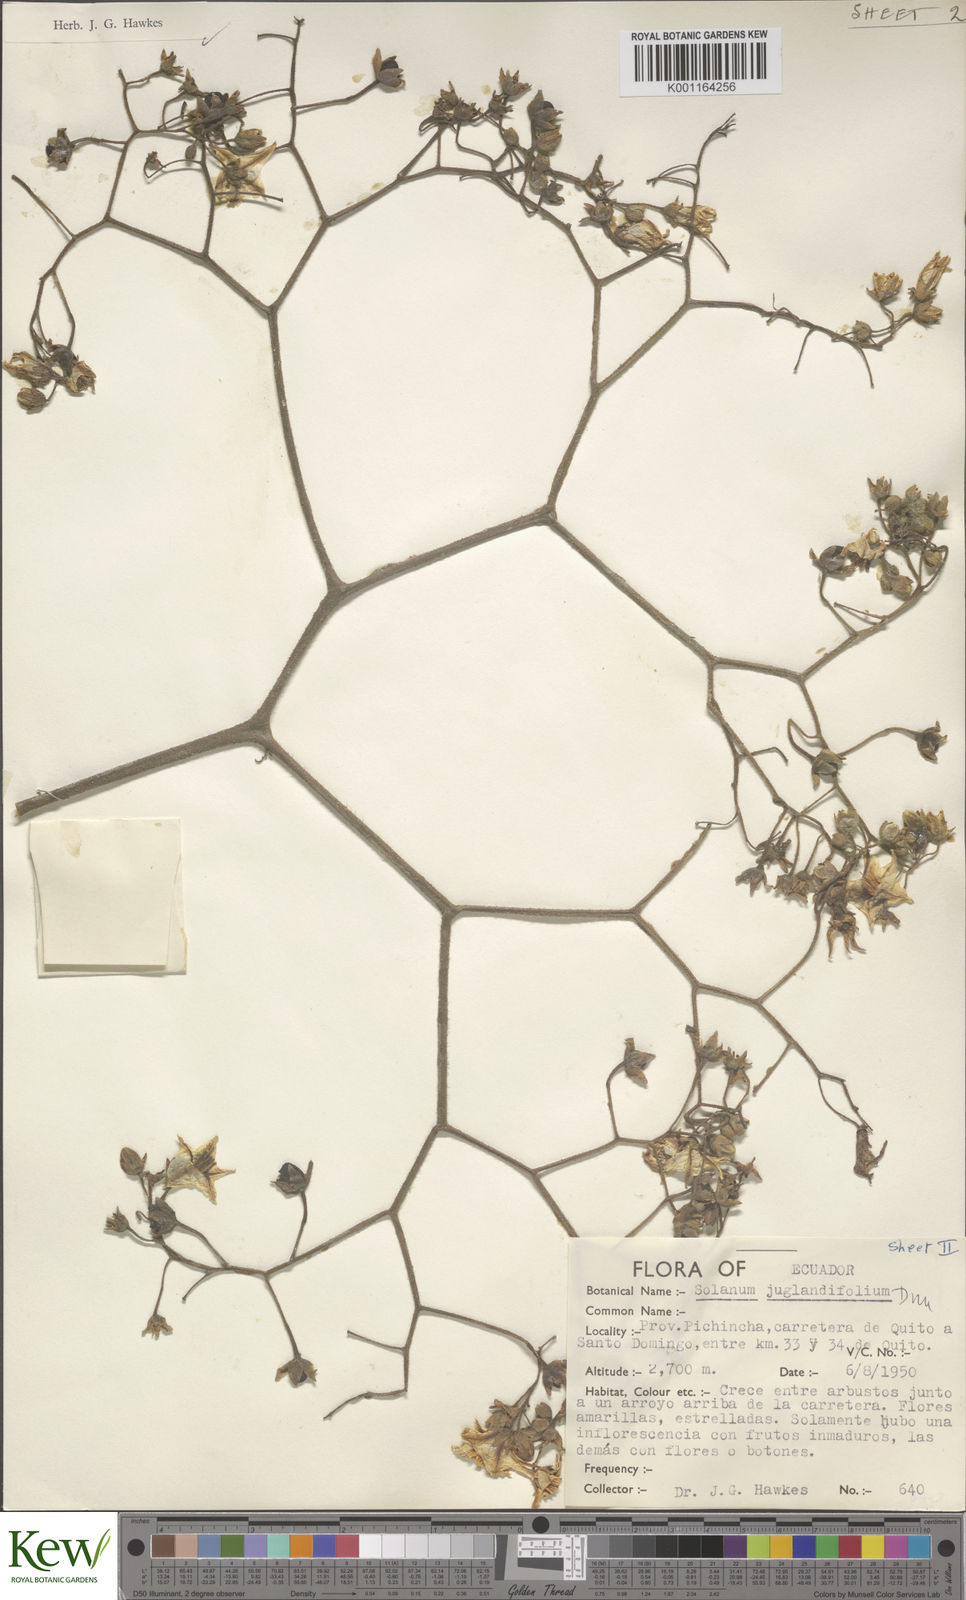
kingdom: Plantae
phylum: Tracheophyta
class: Magnoliopsida
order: Solanales
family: Solanaceae
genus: Solanum
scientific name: Solanum juglandifolium
